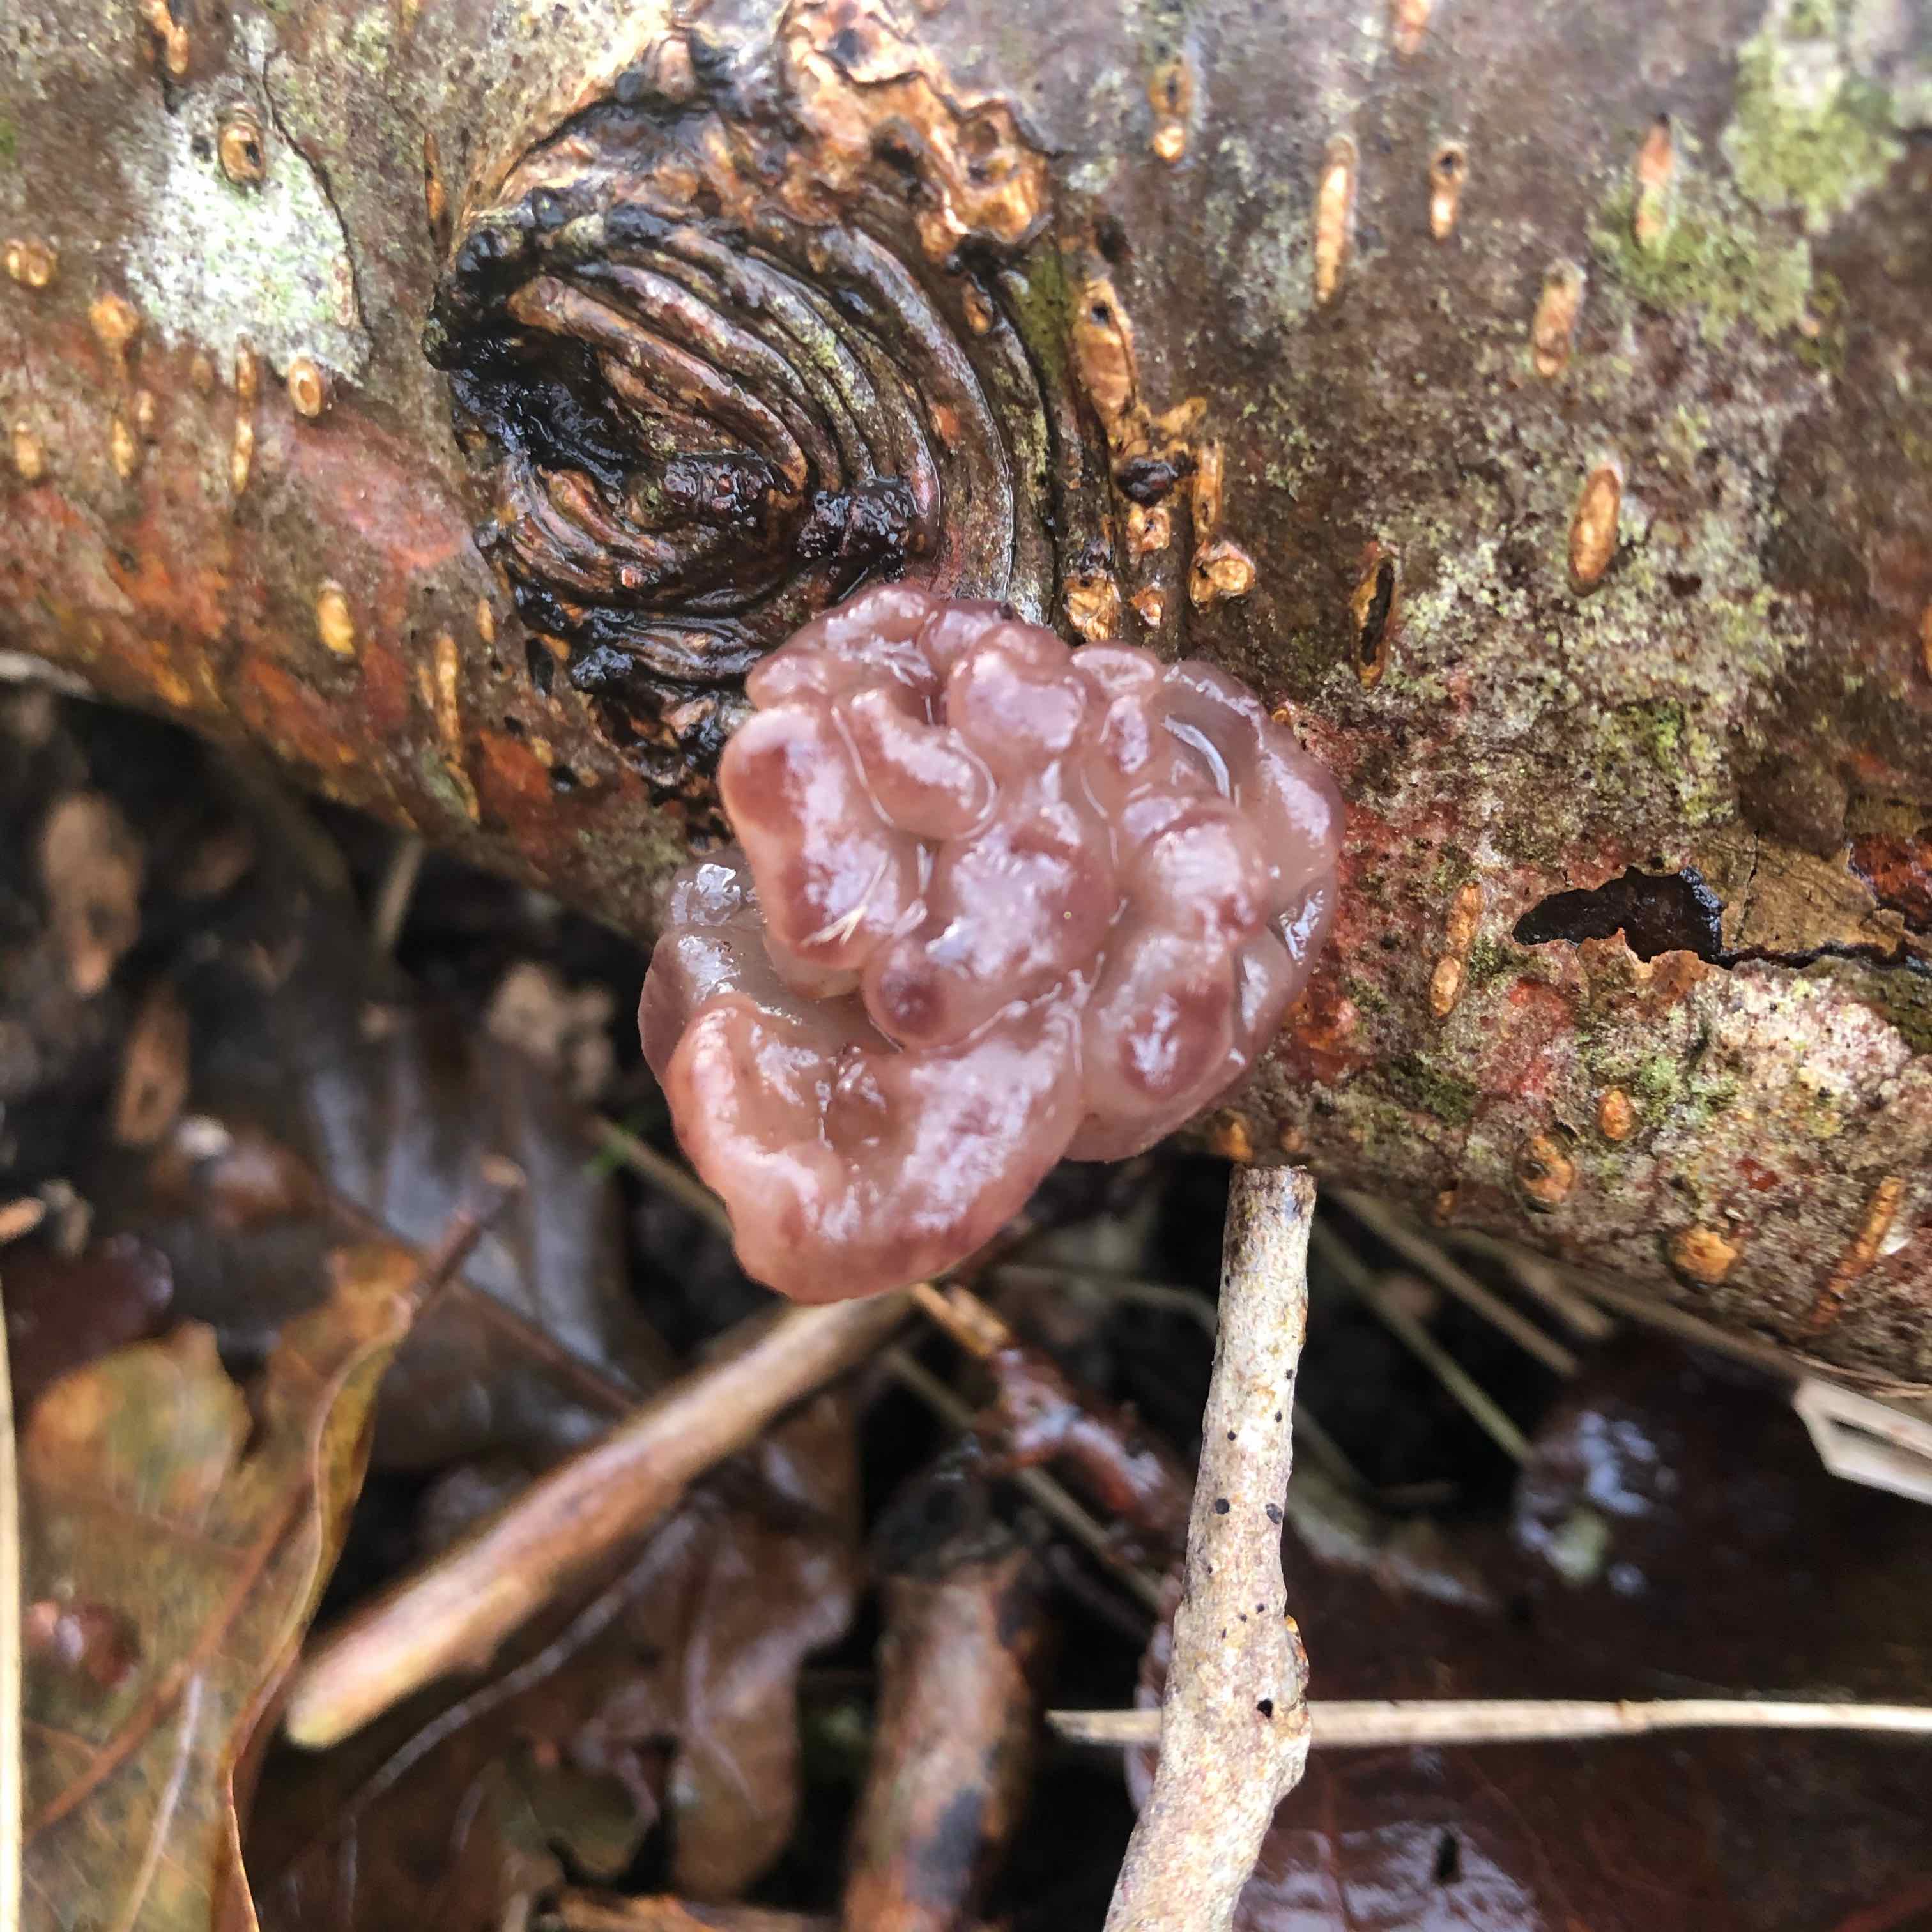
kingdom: Fungi
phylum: Ascomycota
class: Leotiomycetes
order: Helotiales
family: Gelatinodiscaceae
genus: Ascotremella
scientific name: Ascotremella faginea
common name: hjerne-bævreskive
